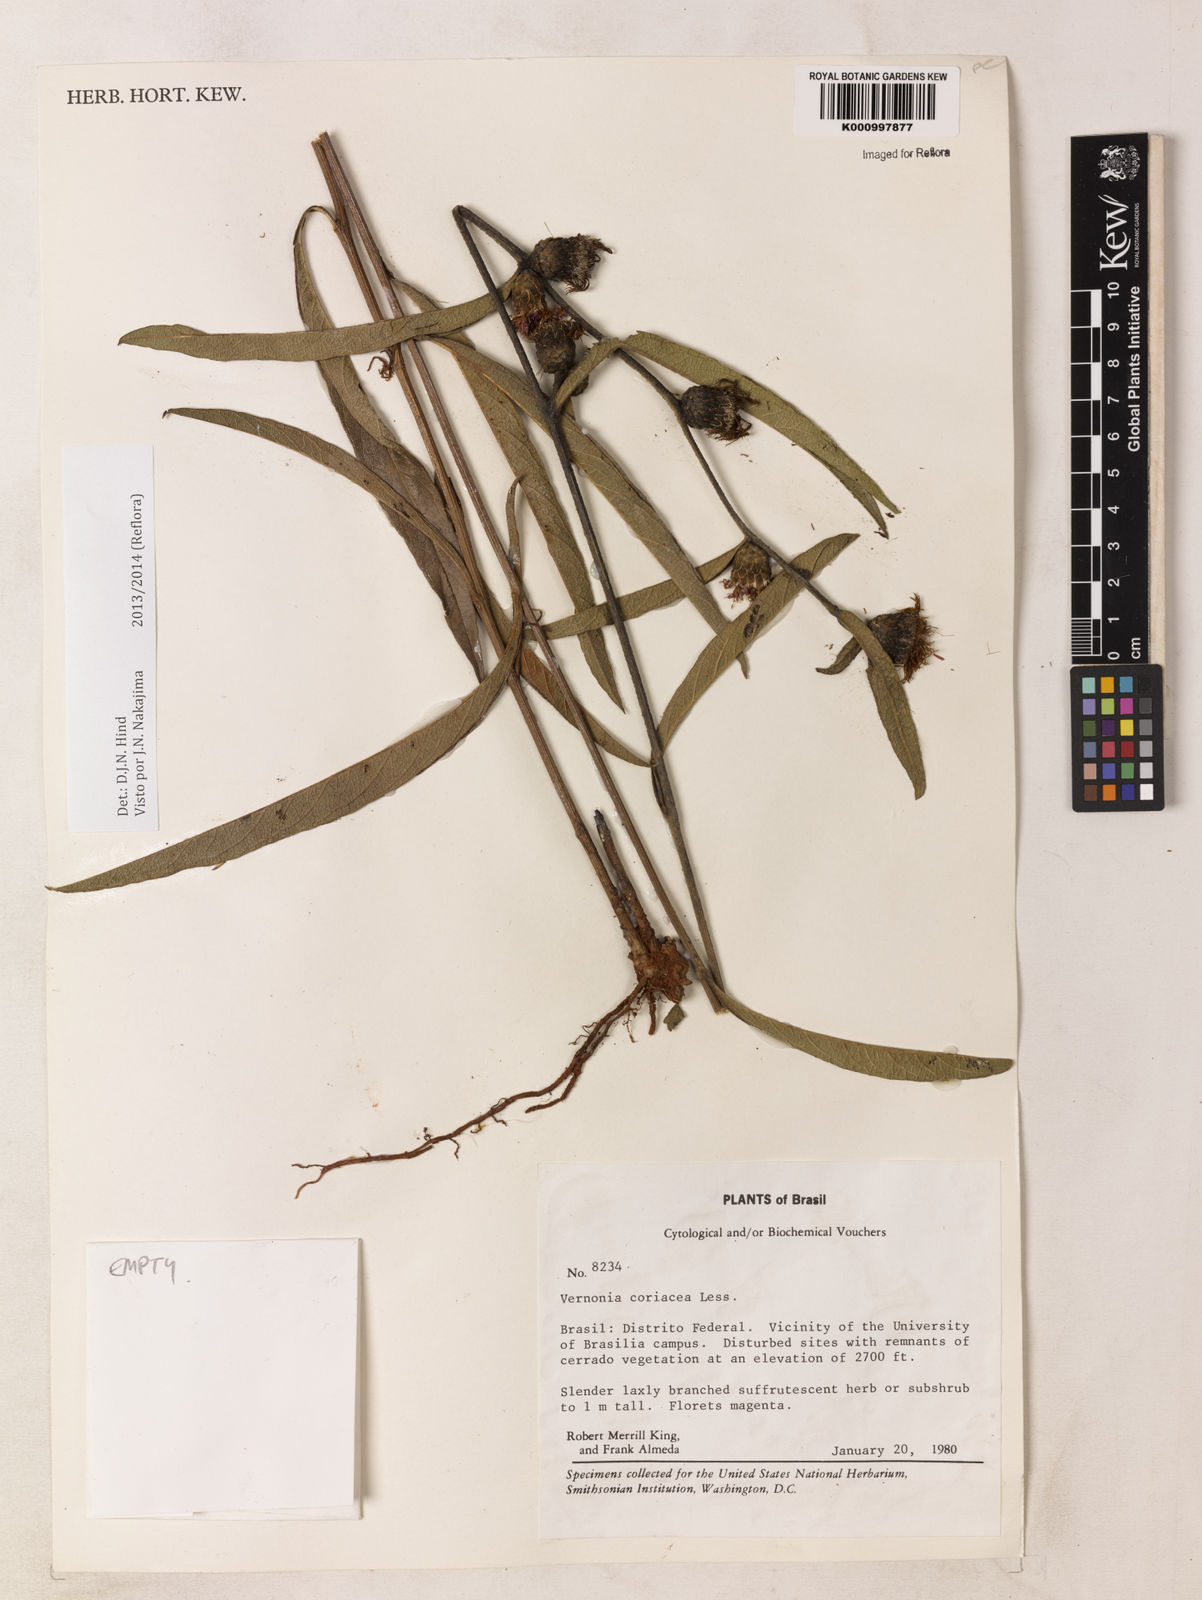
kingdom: Plantae
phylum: Tracheophyta
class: Magnoliopsida
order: Asterales
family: Asteraceae
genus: Lessingianthus
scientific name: Lessingianthus coriaceus
